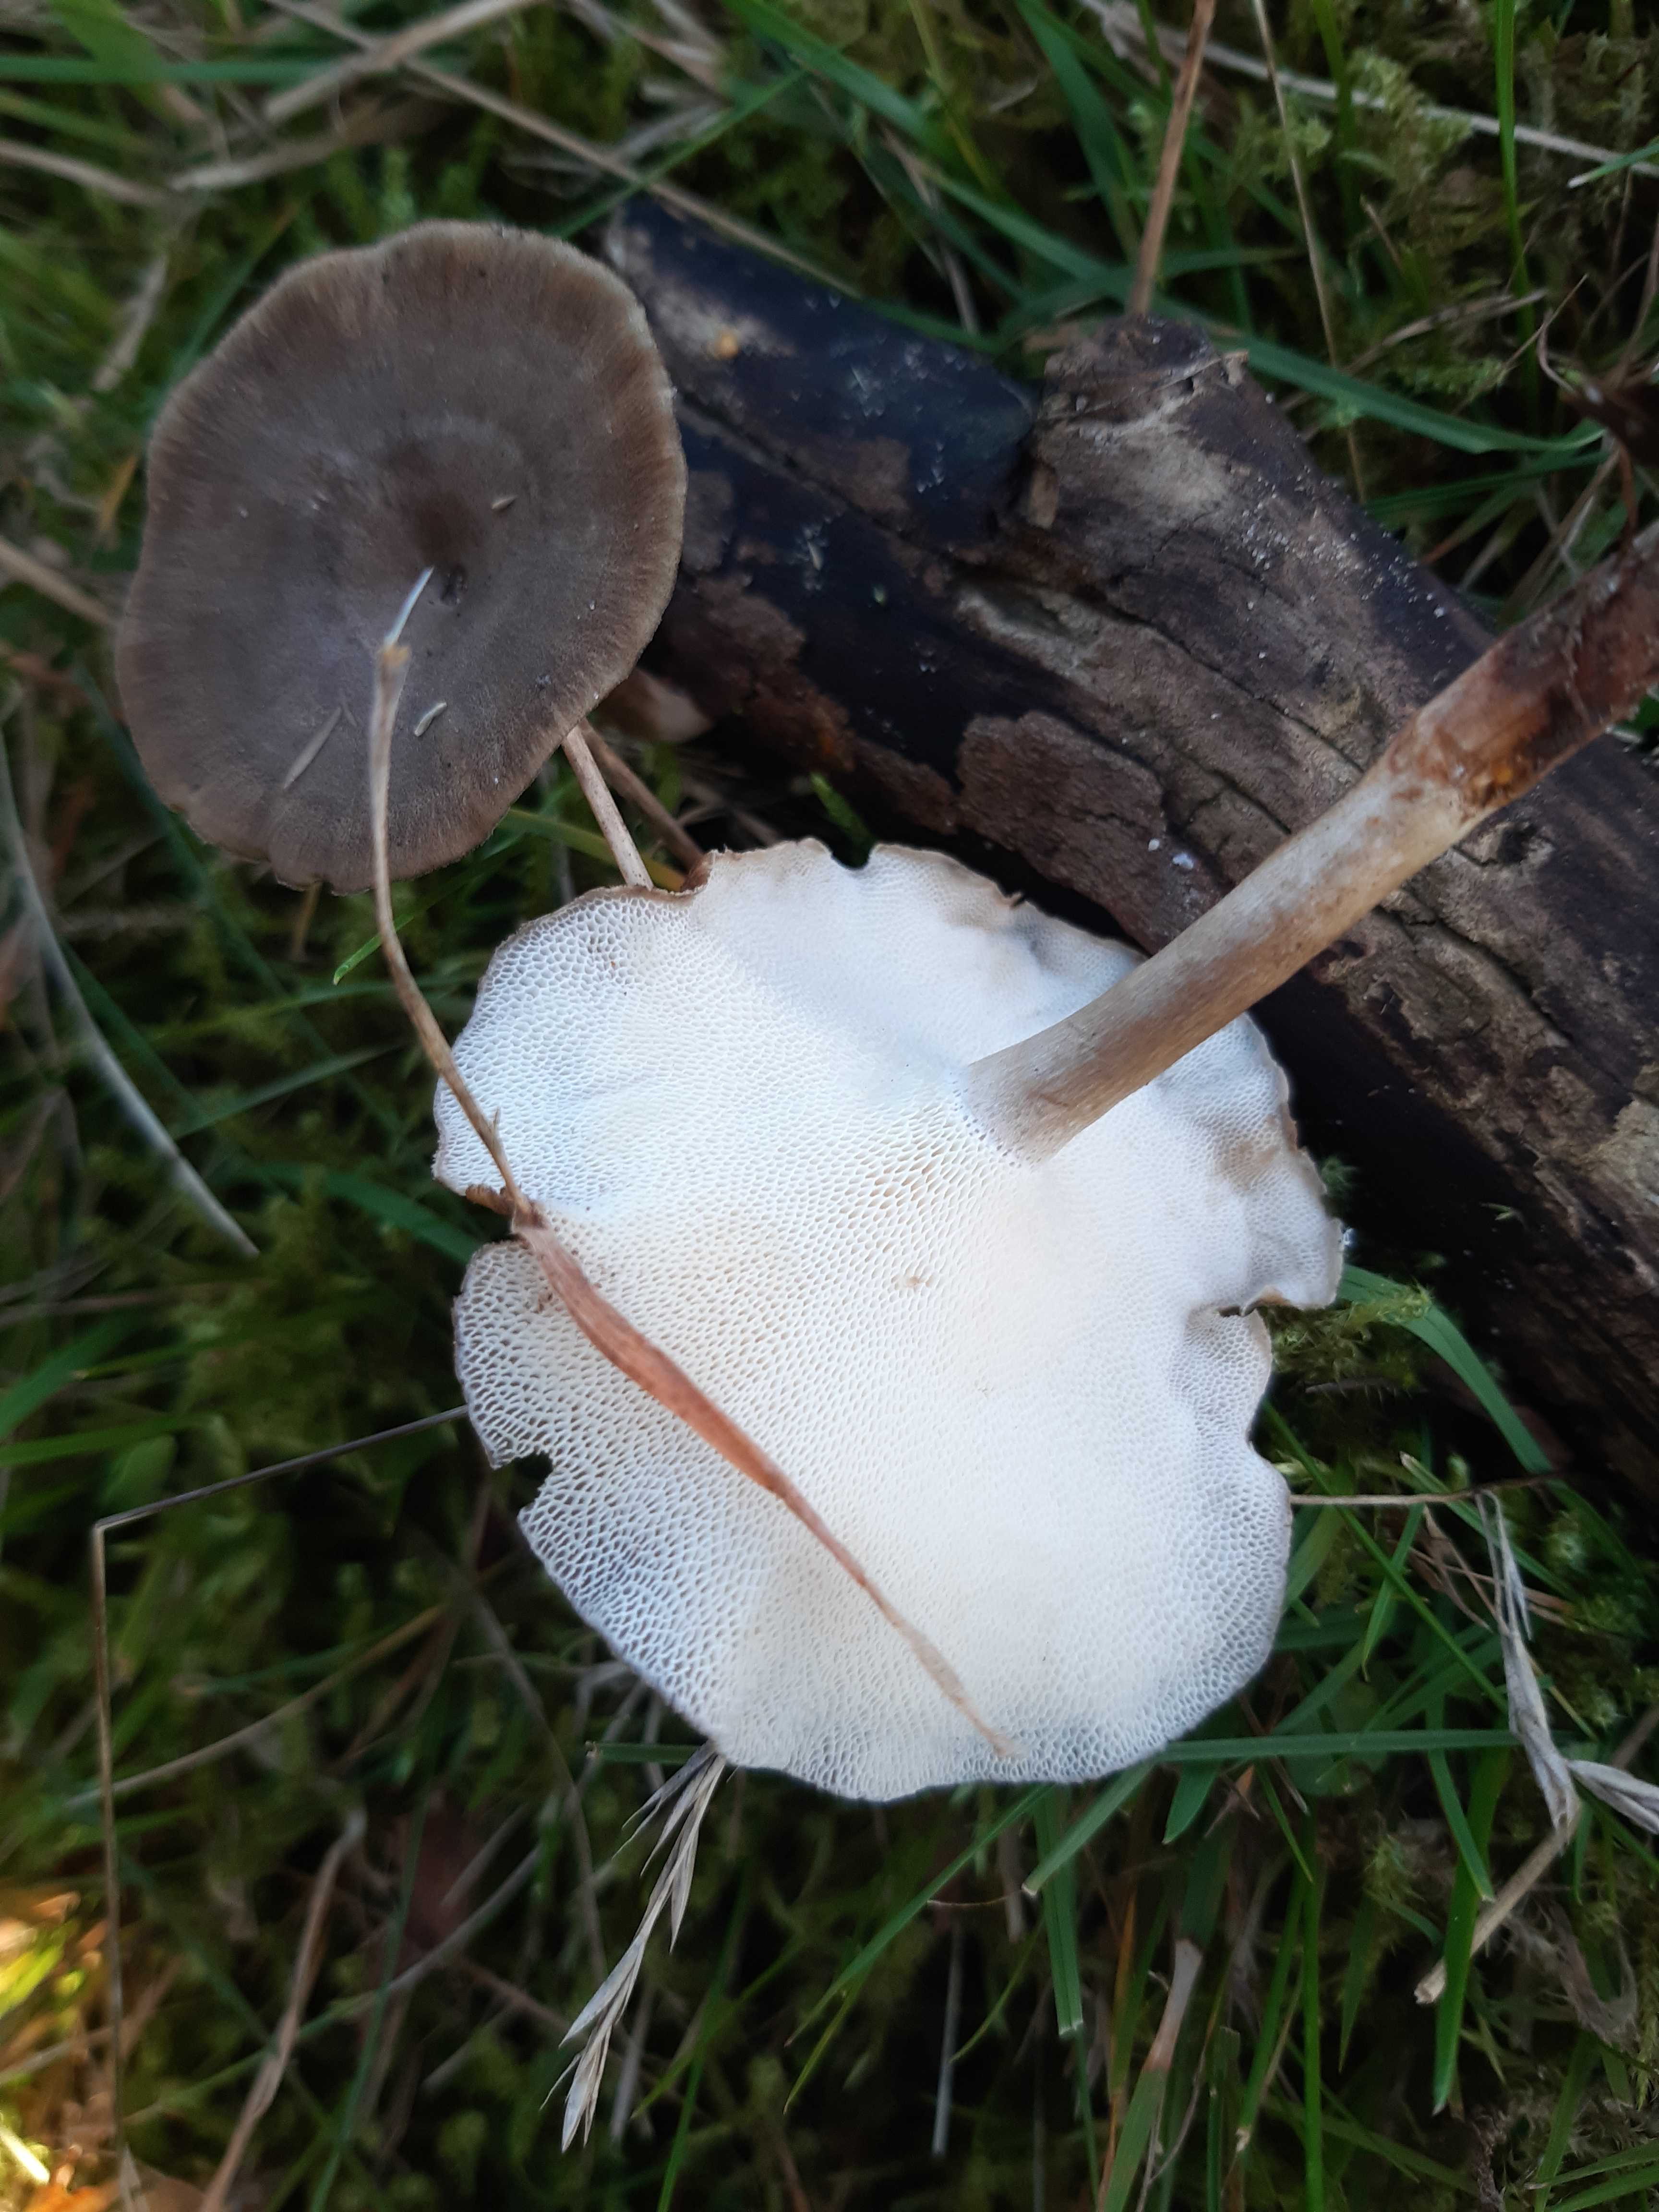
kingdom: Fungi
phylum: Basidiomycota
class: Agaricomycetes
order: Polyporales
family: Polyporaceae
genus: Lentinus
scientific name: Lentinus brumalis
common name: vinter-stilkporesvamp
